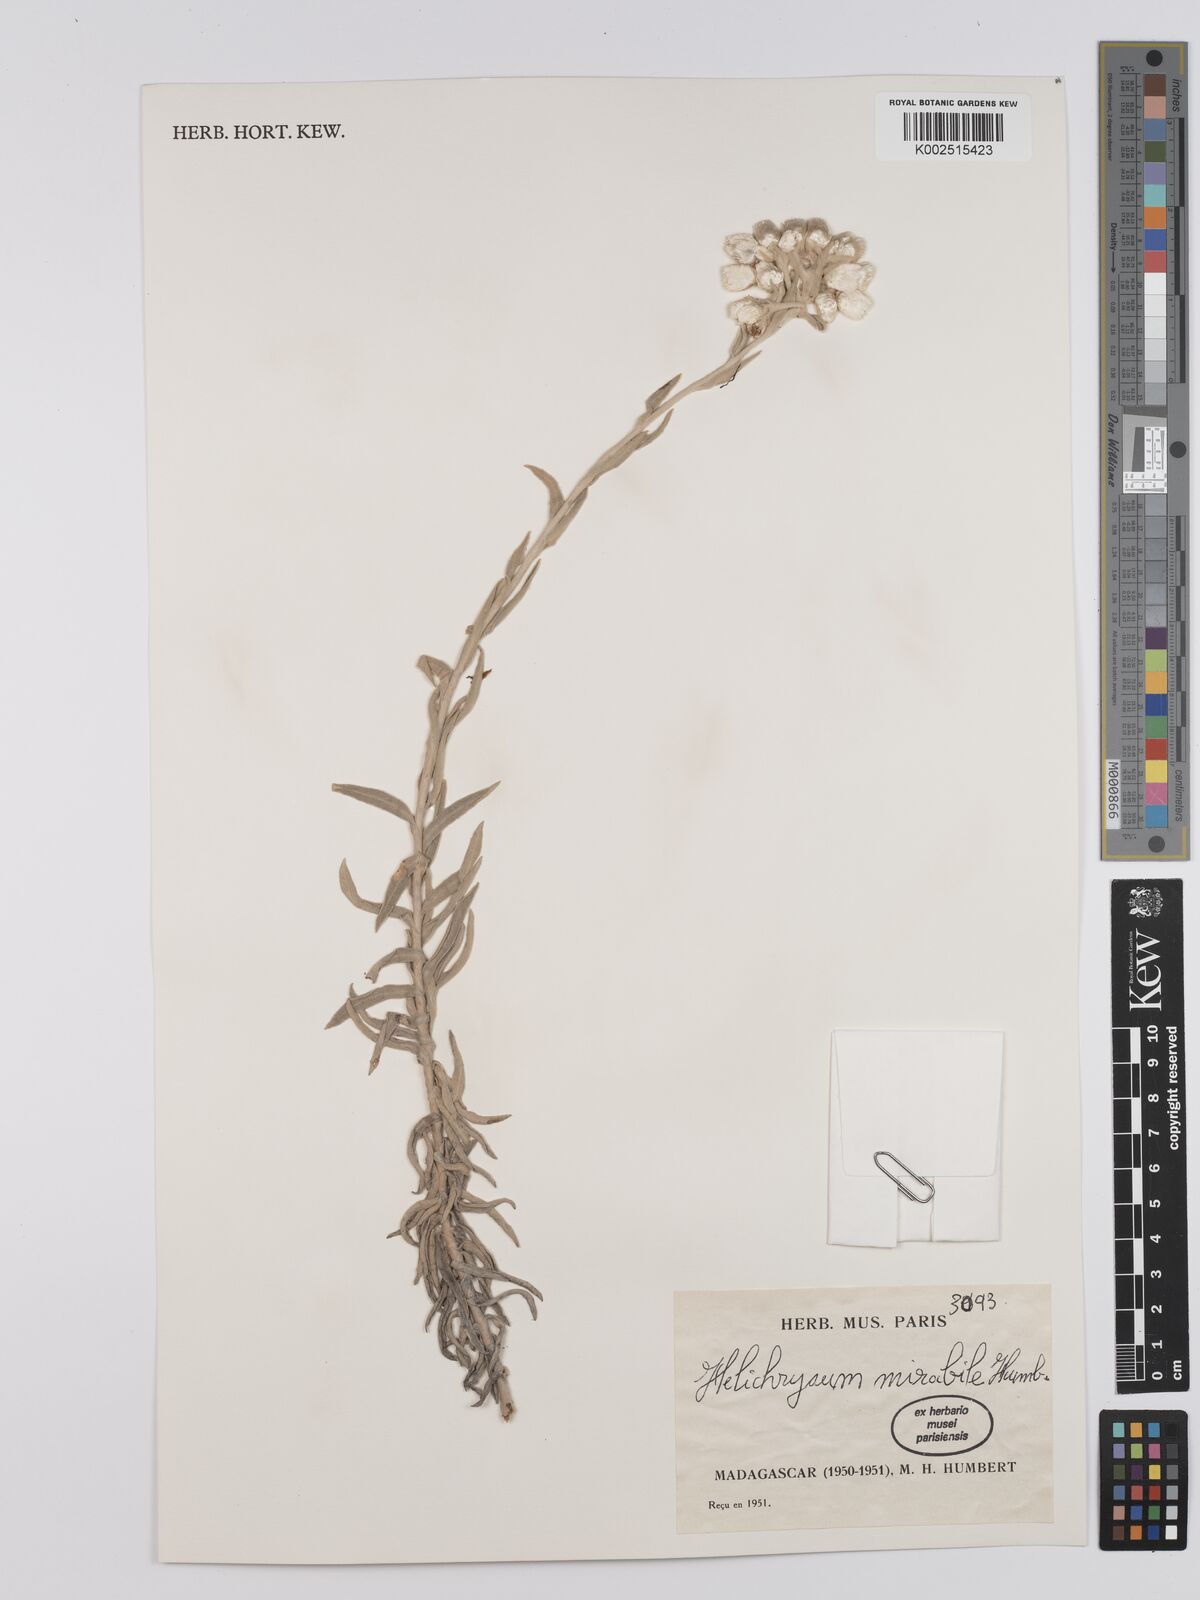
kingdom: Plantae
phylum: Tracheophyta
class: Magnoliopsida
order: Asterales
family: Asteraceae
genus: Helichrysum
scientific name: Helichrysum mirabile
